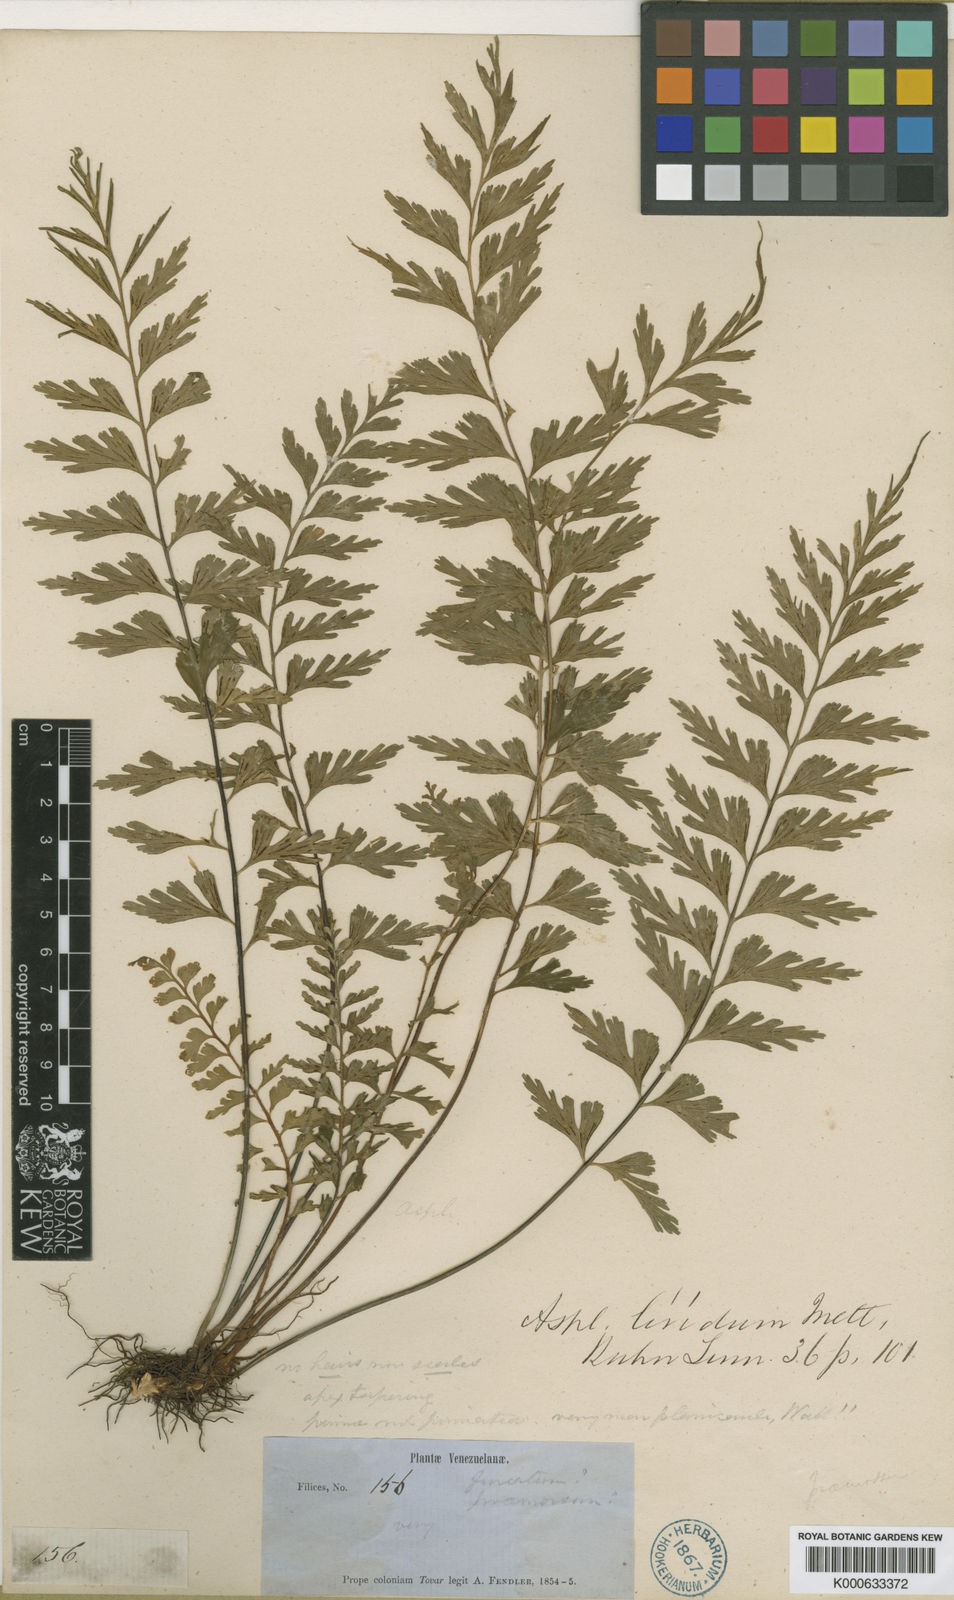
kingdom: Plantae
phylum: Tracheophyta
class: Polypodiopsida
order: Polypodiales
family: Aspleniaceae
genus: Asplenium
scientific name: Asplenium lividum
